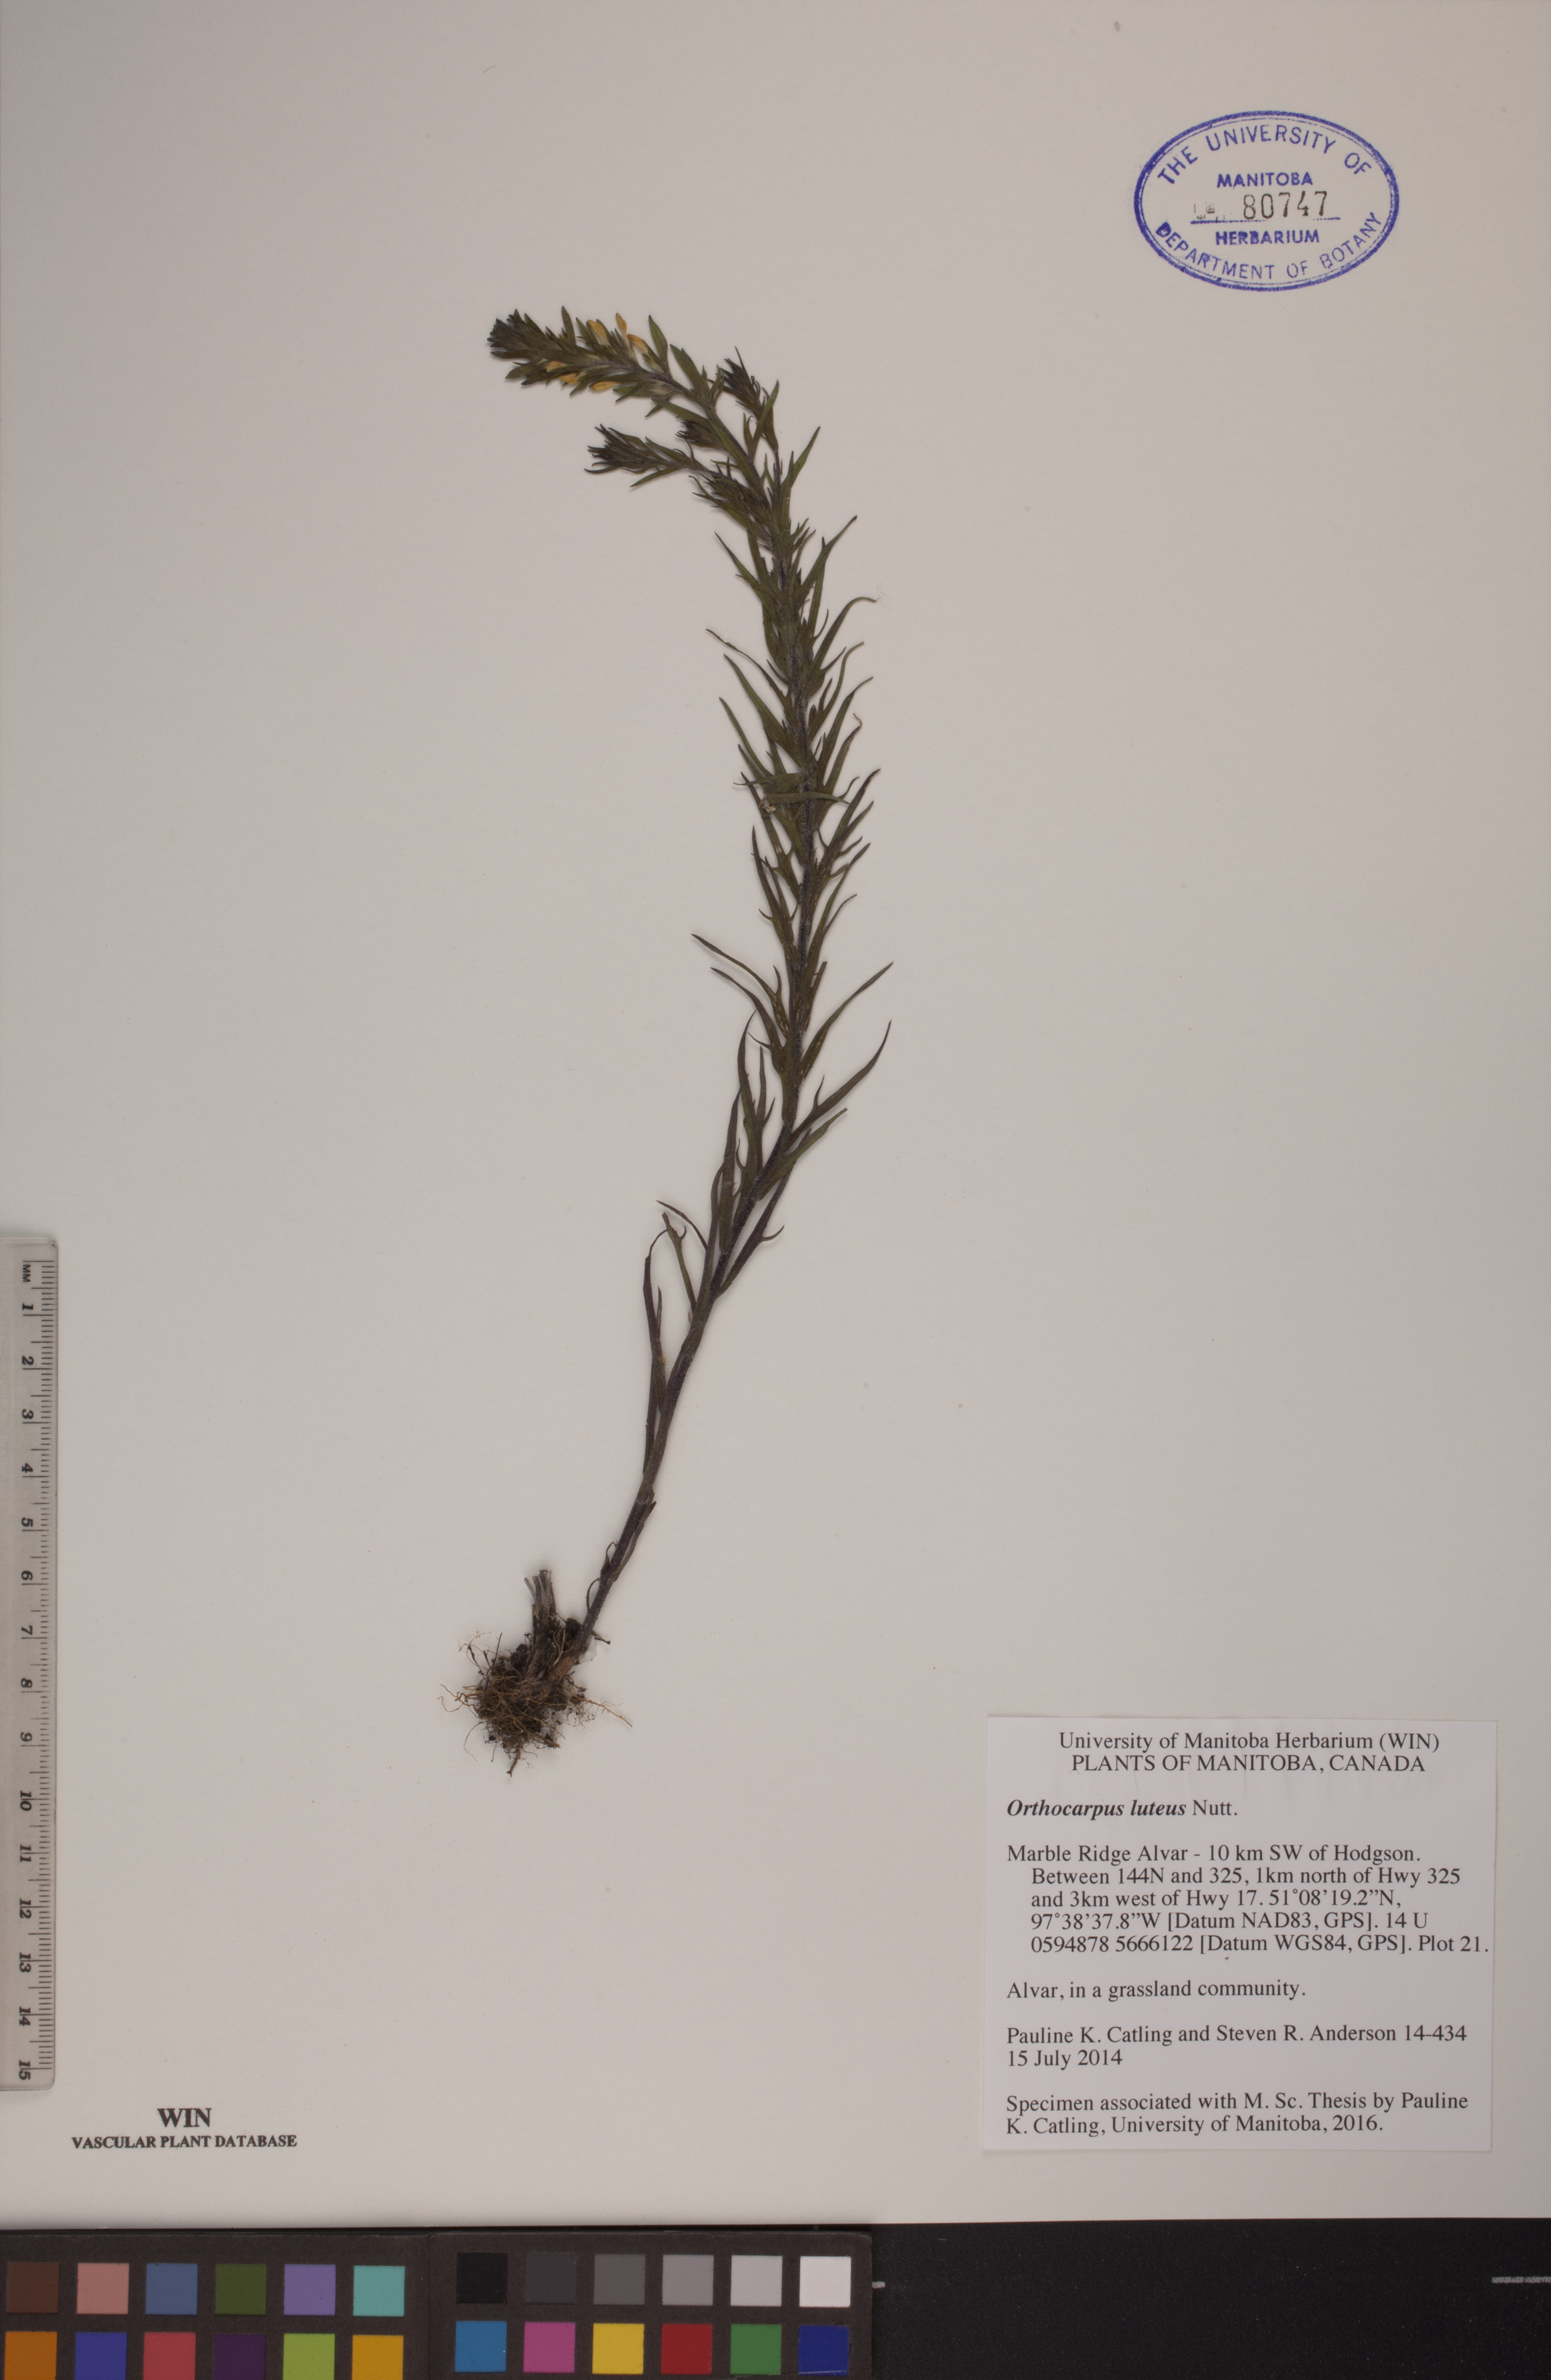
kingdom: Plantae
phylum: Tracheophyta
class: Magnoliopsida
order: Lamiales
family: Orobanchaceae
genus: Orthocarpus
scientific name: Orthocarpus luteus
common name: Golden-tongue owl's-clover
